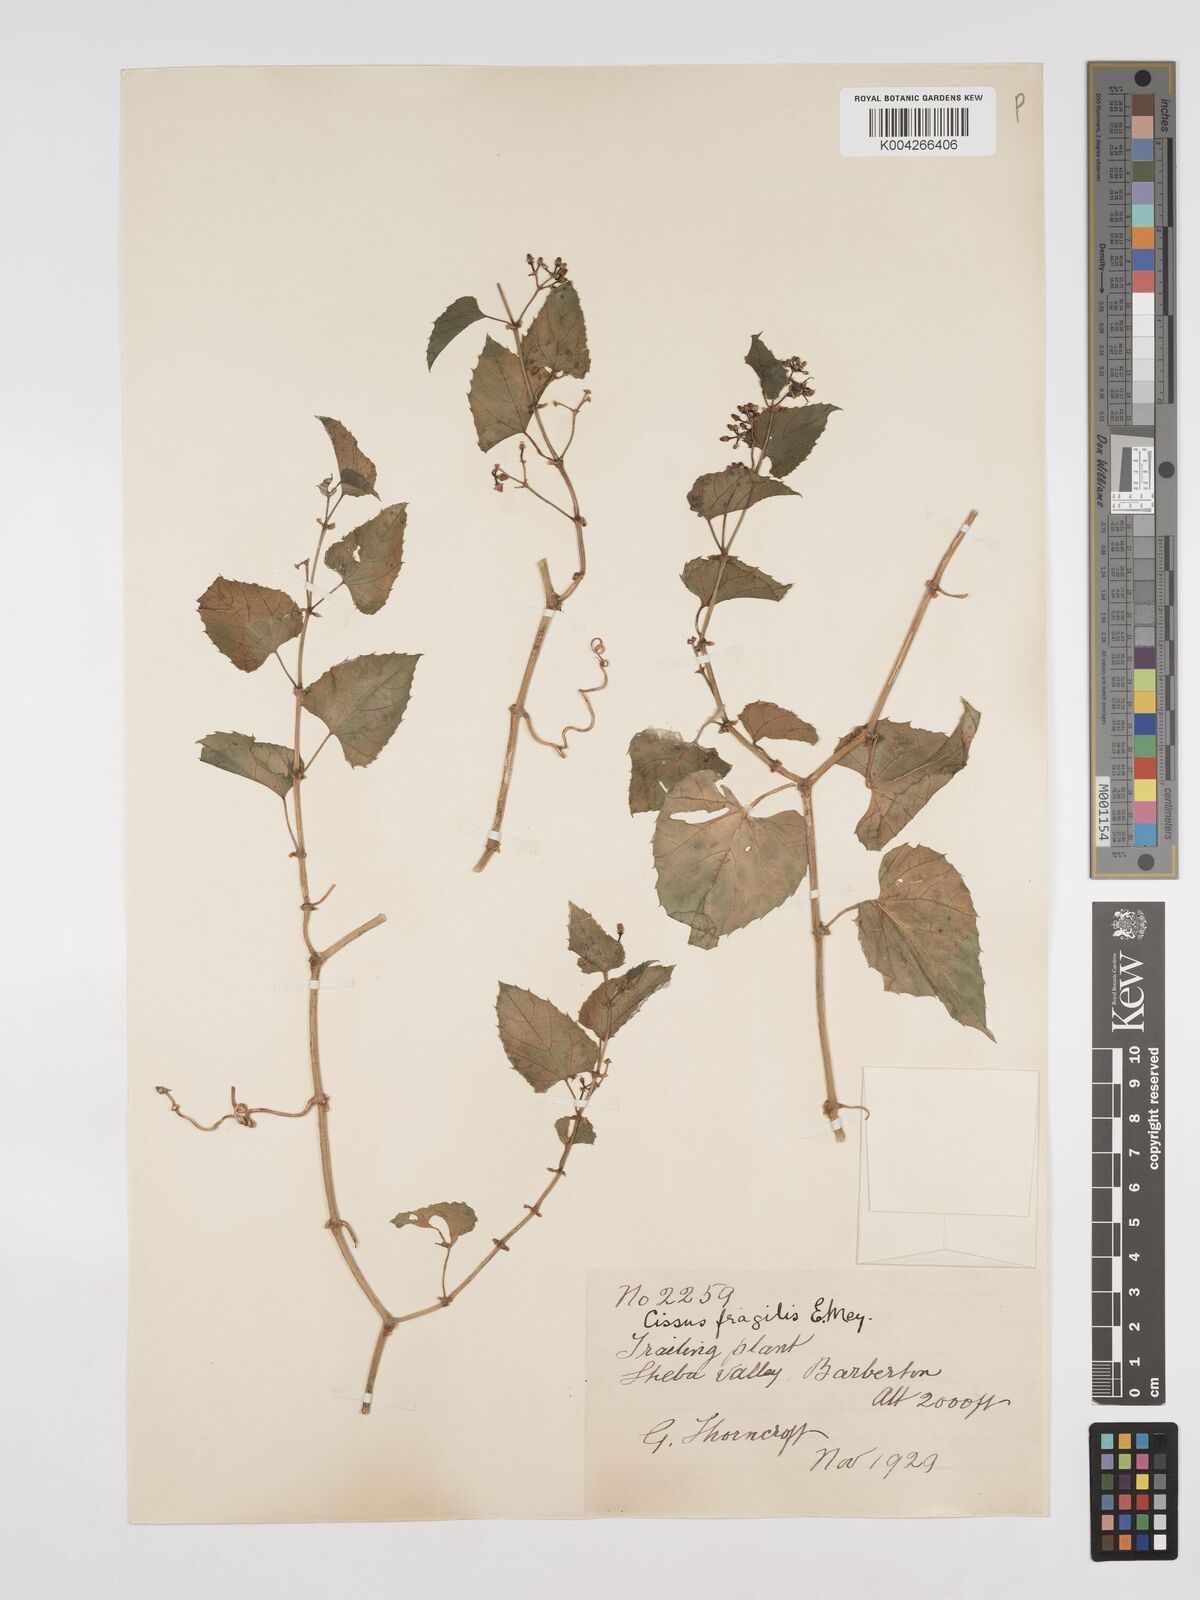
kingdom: Plantae
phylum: Tracheophyta
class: Magnoliopsida
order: Vitales
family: Vitaceae
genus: Cissus
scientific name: Cissus fragilis
